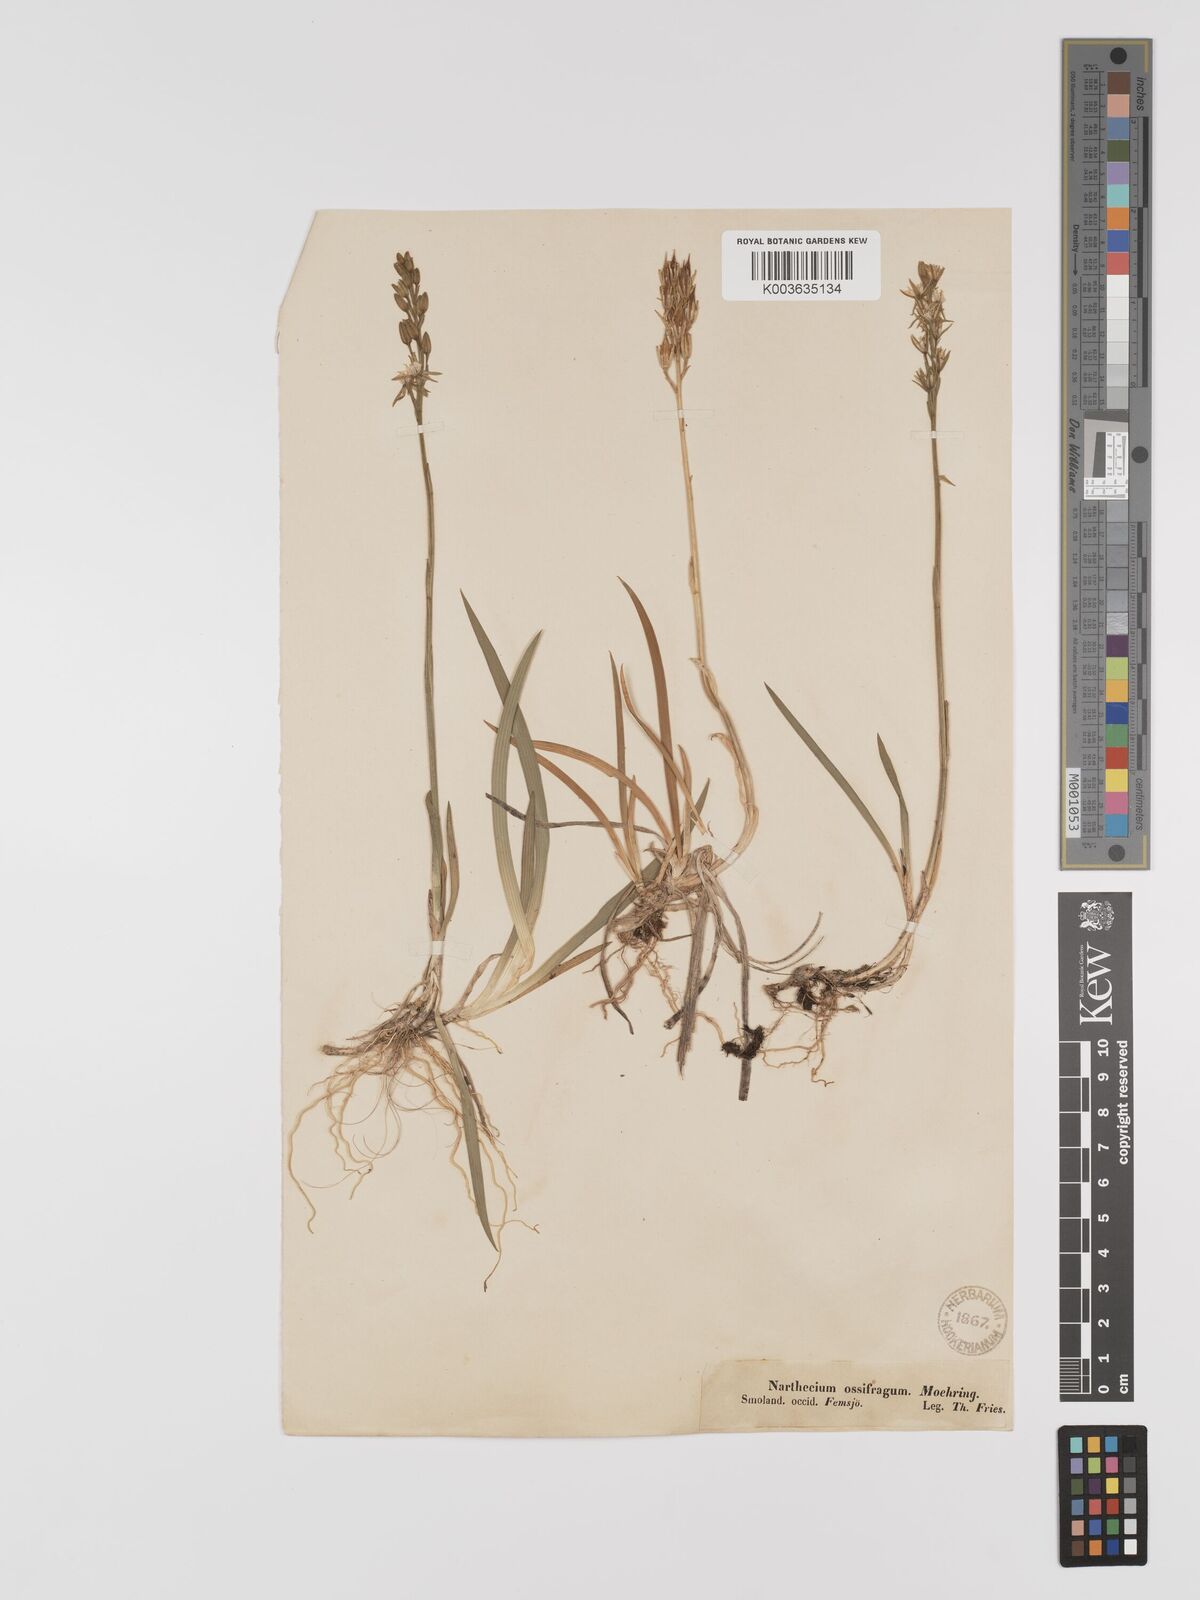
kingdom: Plantae
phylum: Tracheophyta
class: Liliopsida
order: Dioscoreales
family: Nartheciaceae
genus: Narthecium
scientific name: Narthecium ossifragum
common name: Bog asphodel
